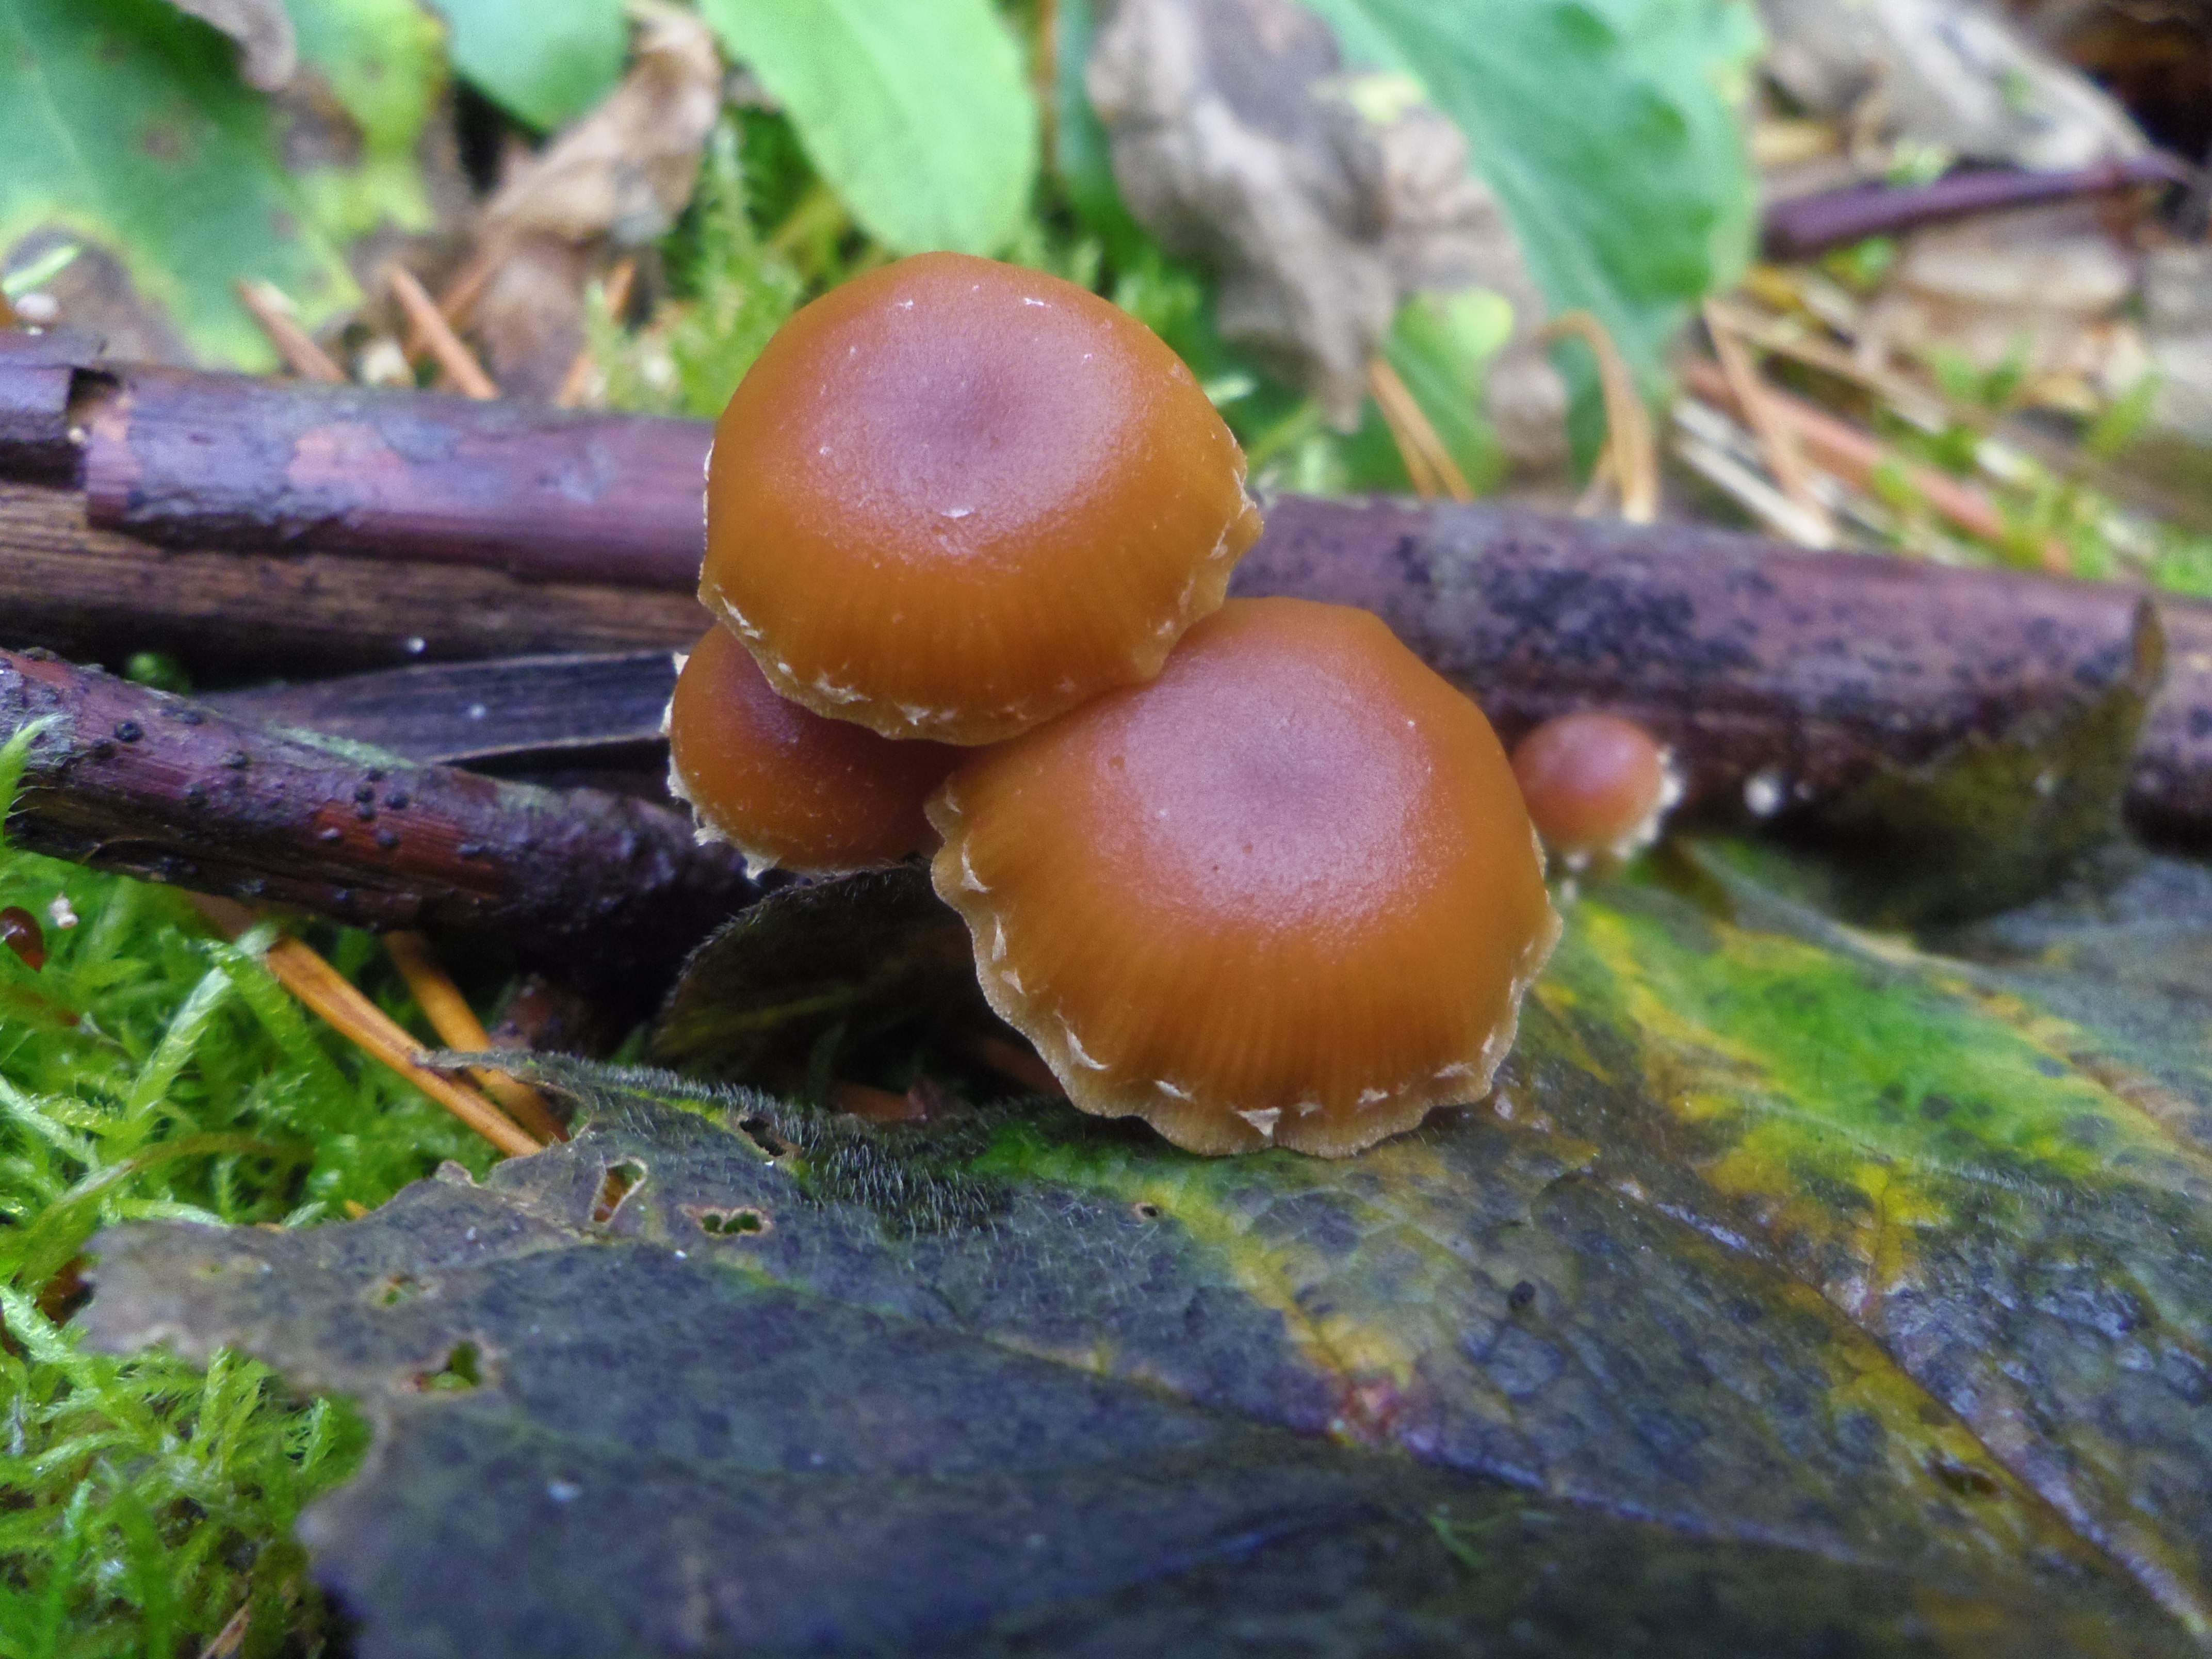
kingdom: Fungi
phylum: Basidiomycota
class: Agaricomycetes
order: Agaricales
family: Tubariaceae
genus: Tubaria
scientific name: Tubaria furfuracea
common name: Scurfy twiglet
